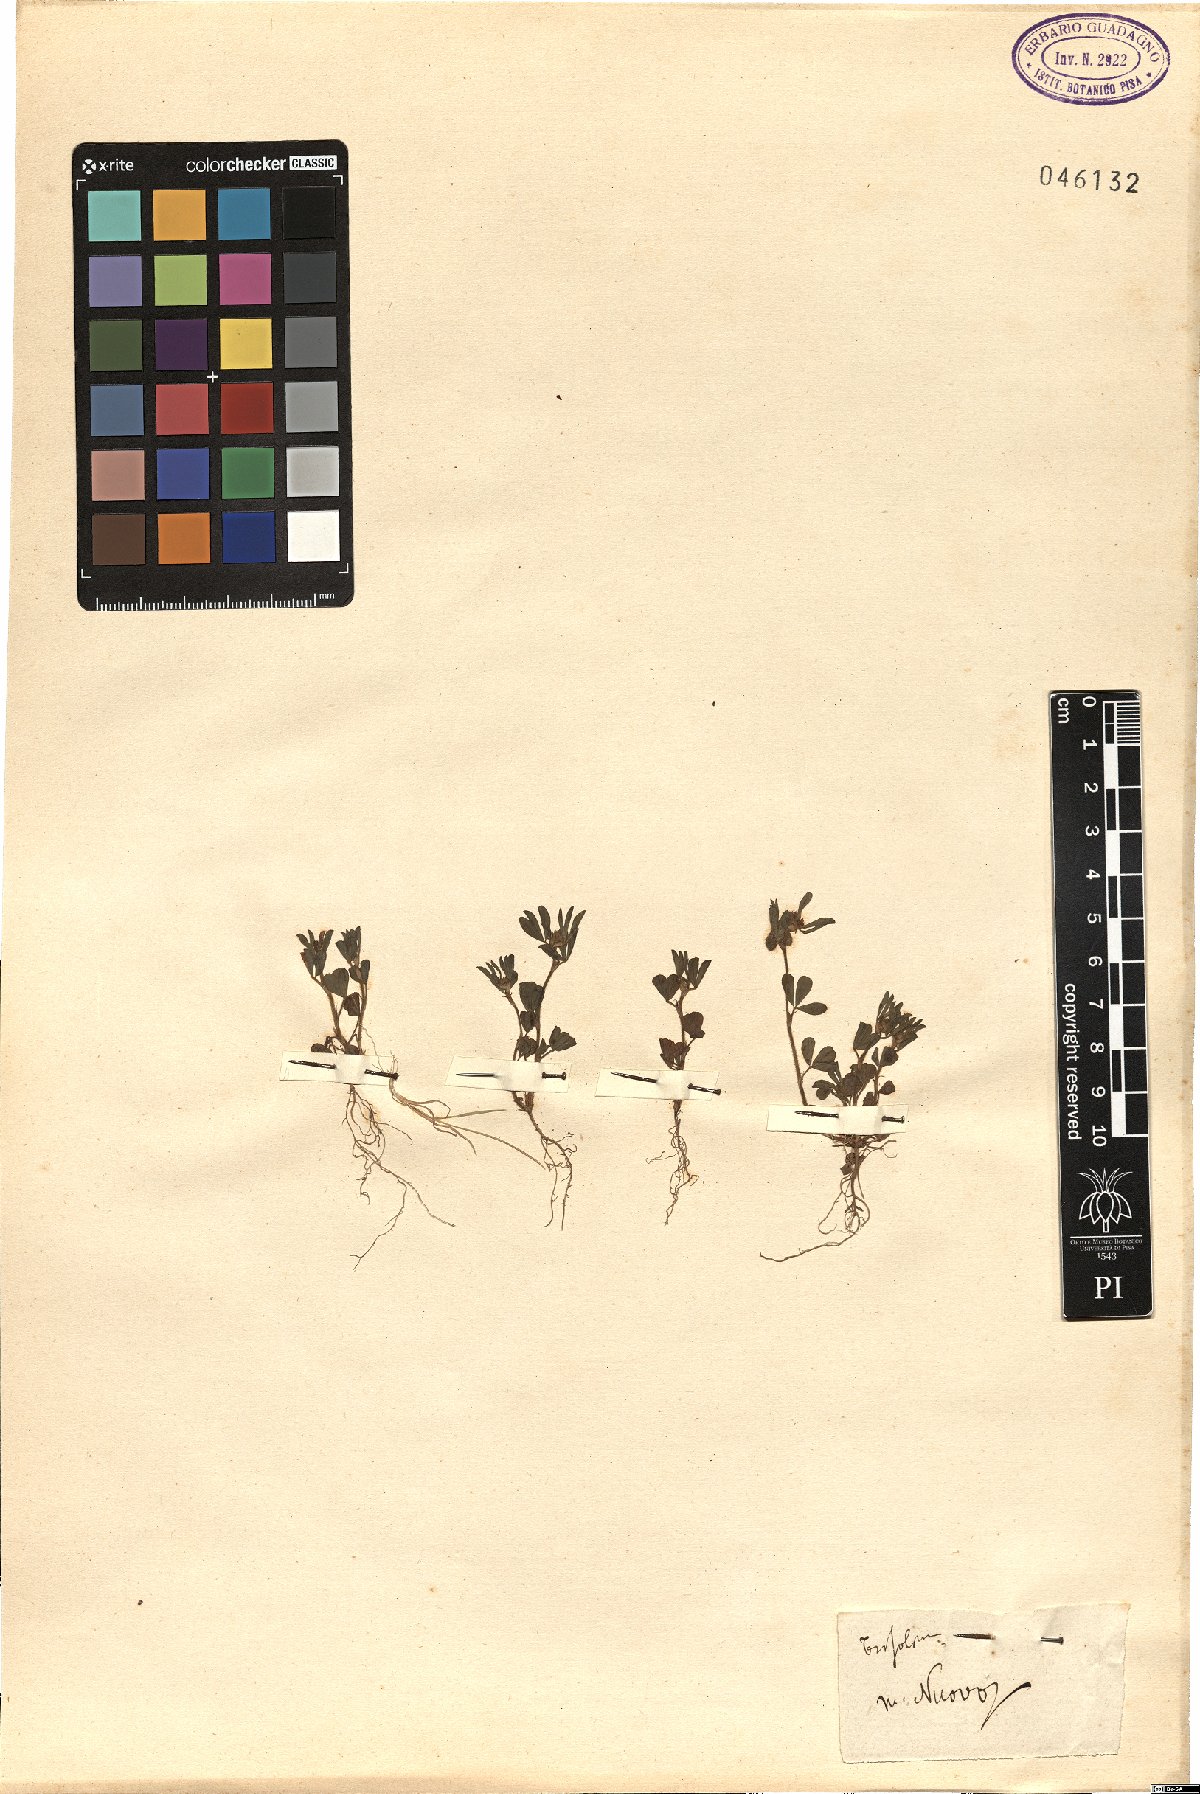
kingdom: Plantae
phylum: Tracheophyta
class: Magnoliopsida
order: Fabales
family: Fabaceae
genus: Trifolium
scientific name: Trifolium
